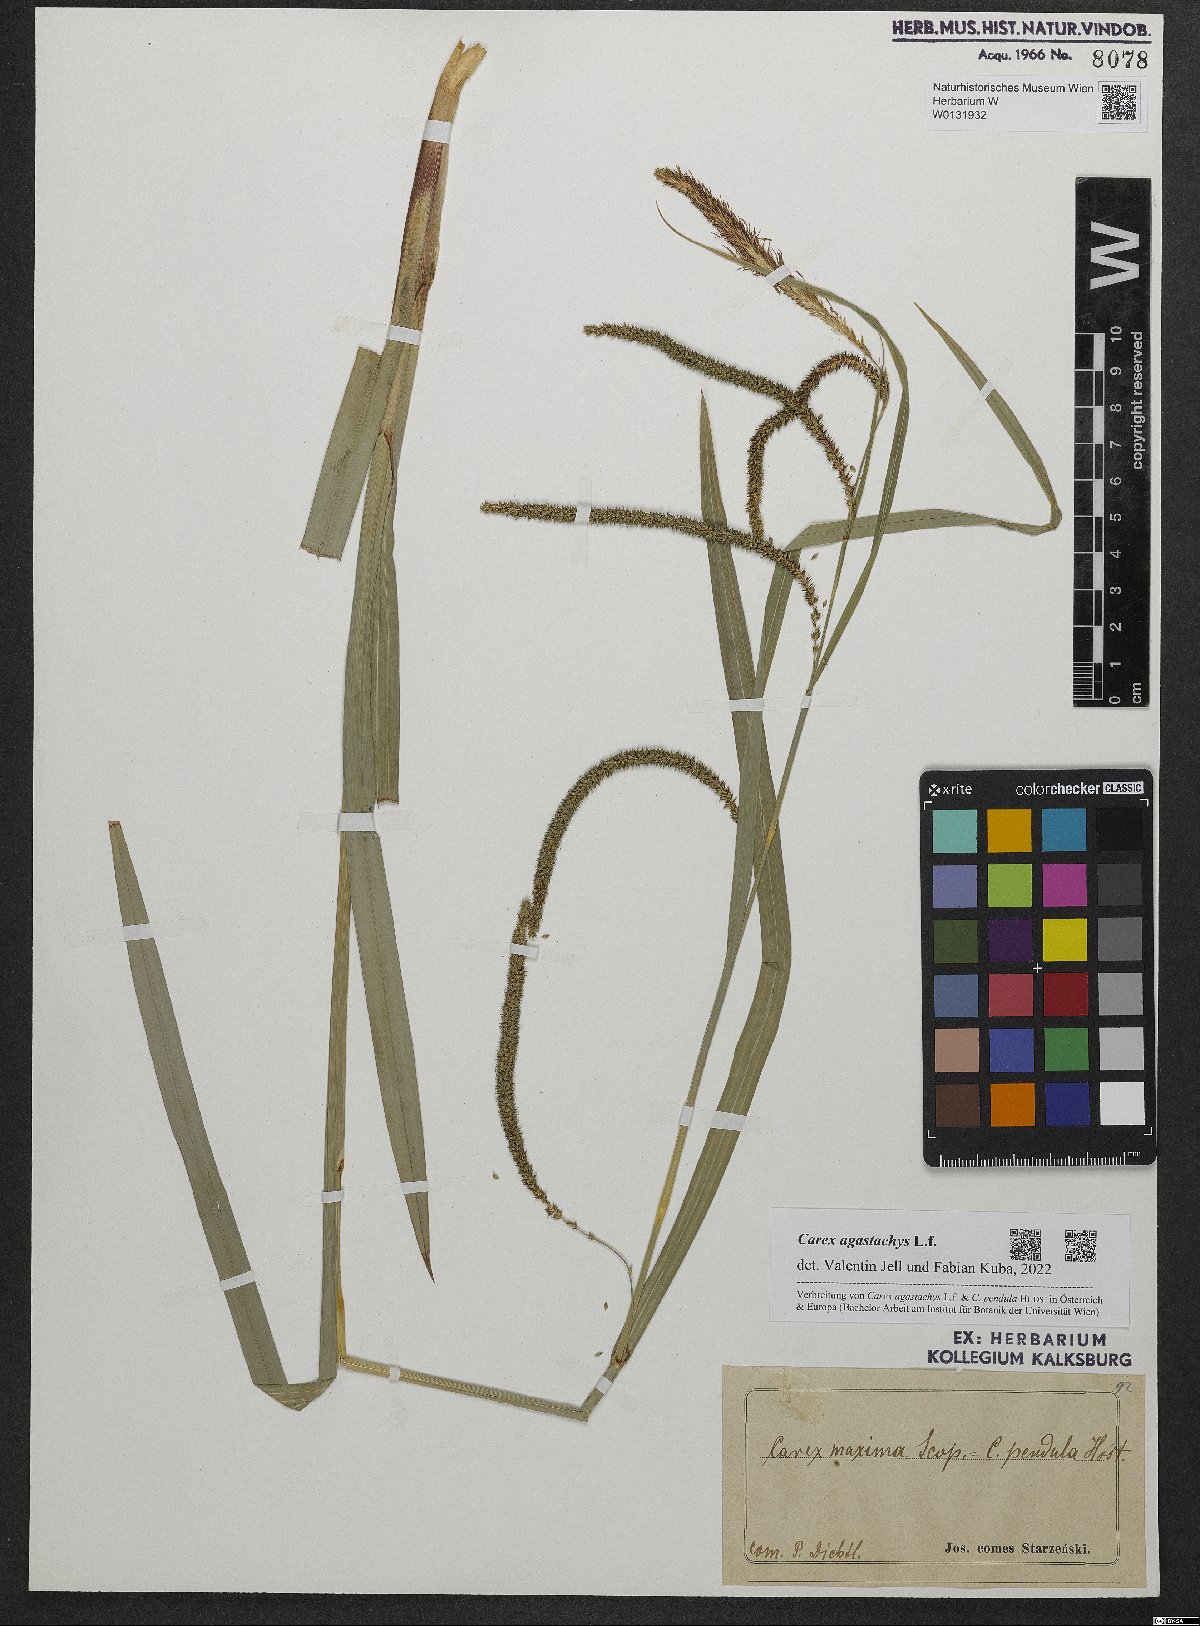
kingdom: Plantae
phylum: Tracheophyta
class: Liliopsida
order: Poales
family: Cyperaceae
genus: Carex
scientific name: Carex agastachys
